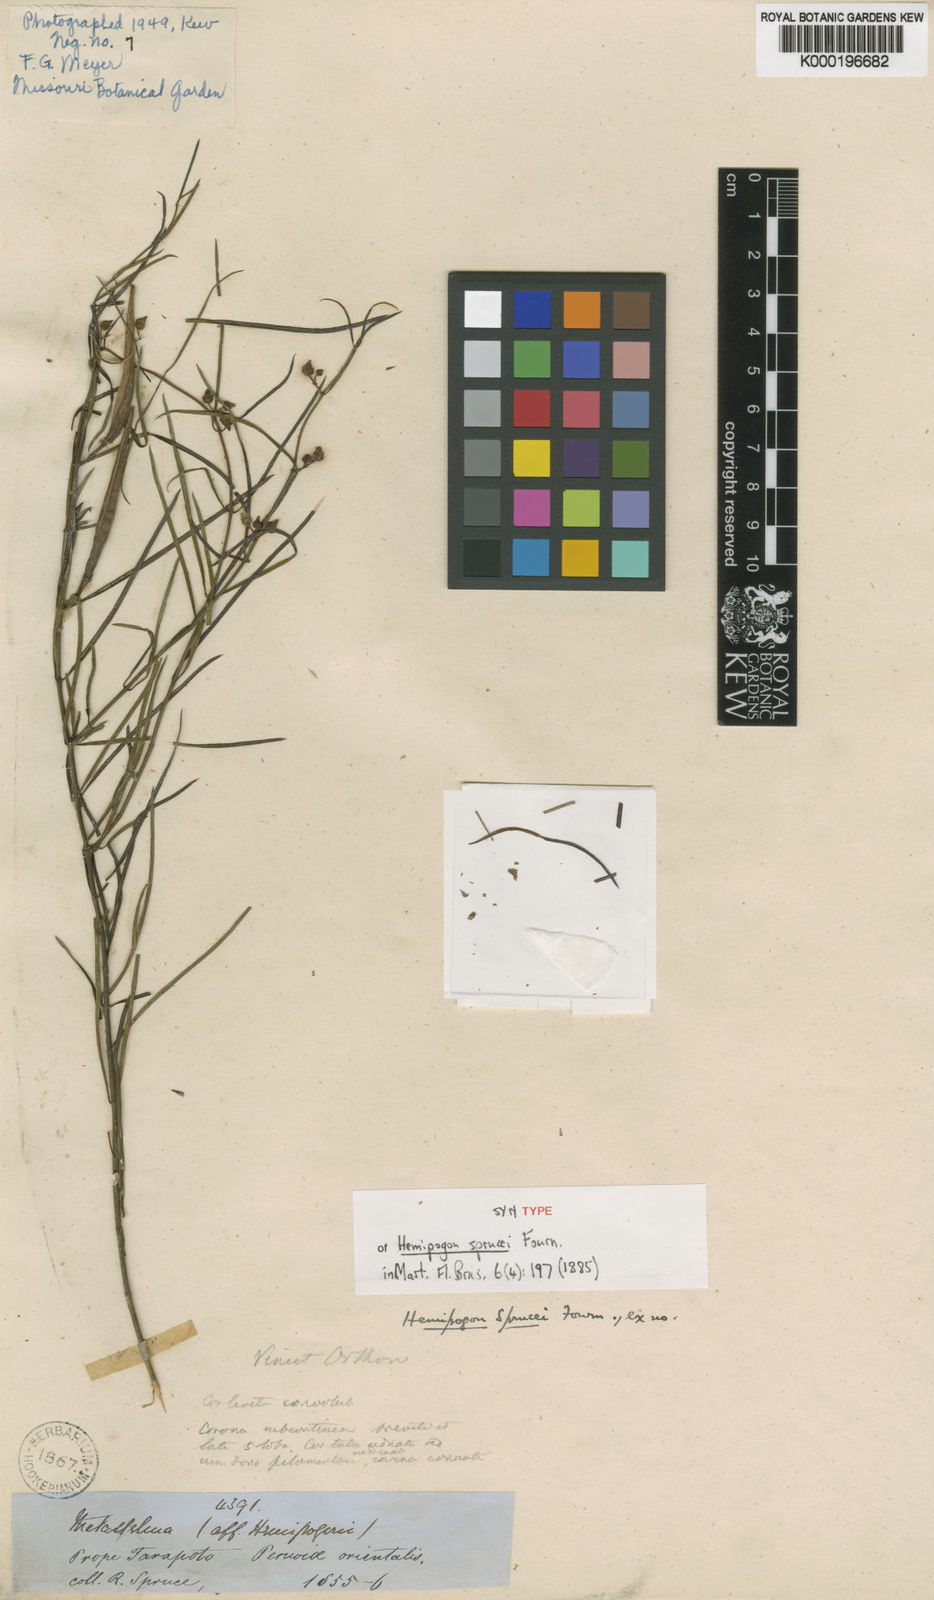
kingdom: Plantae
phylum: Tracheophyta
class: Magnoliopsida
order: Gentianales
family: Apocynaceae
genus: Hemipogon
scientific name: Hemipogon sprucei
